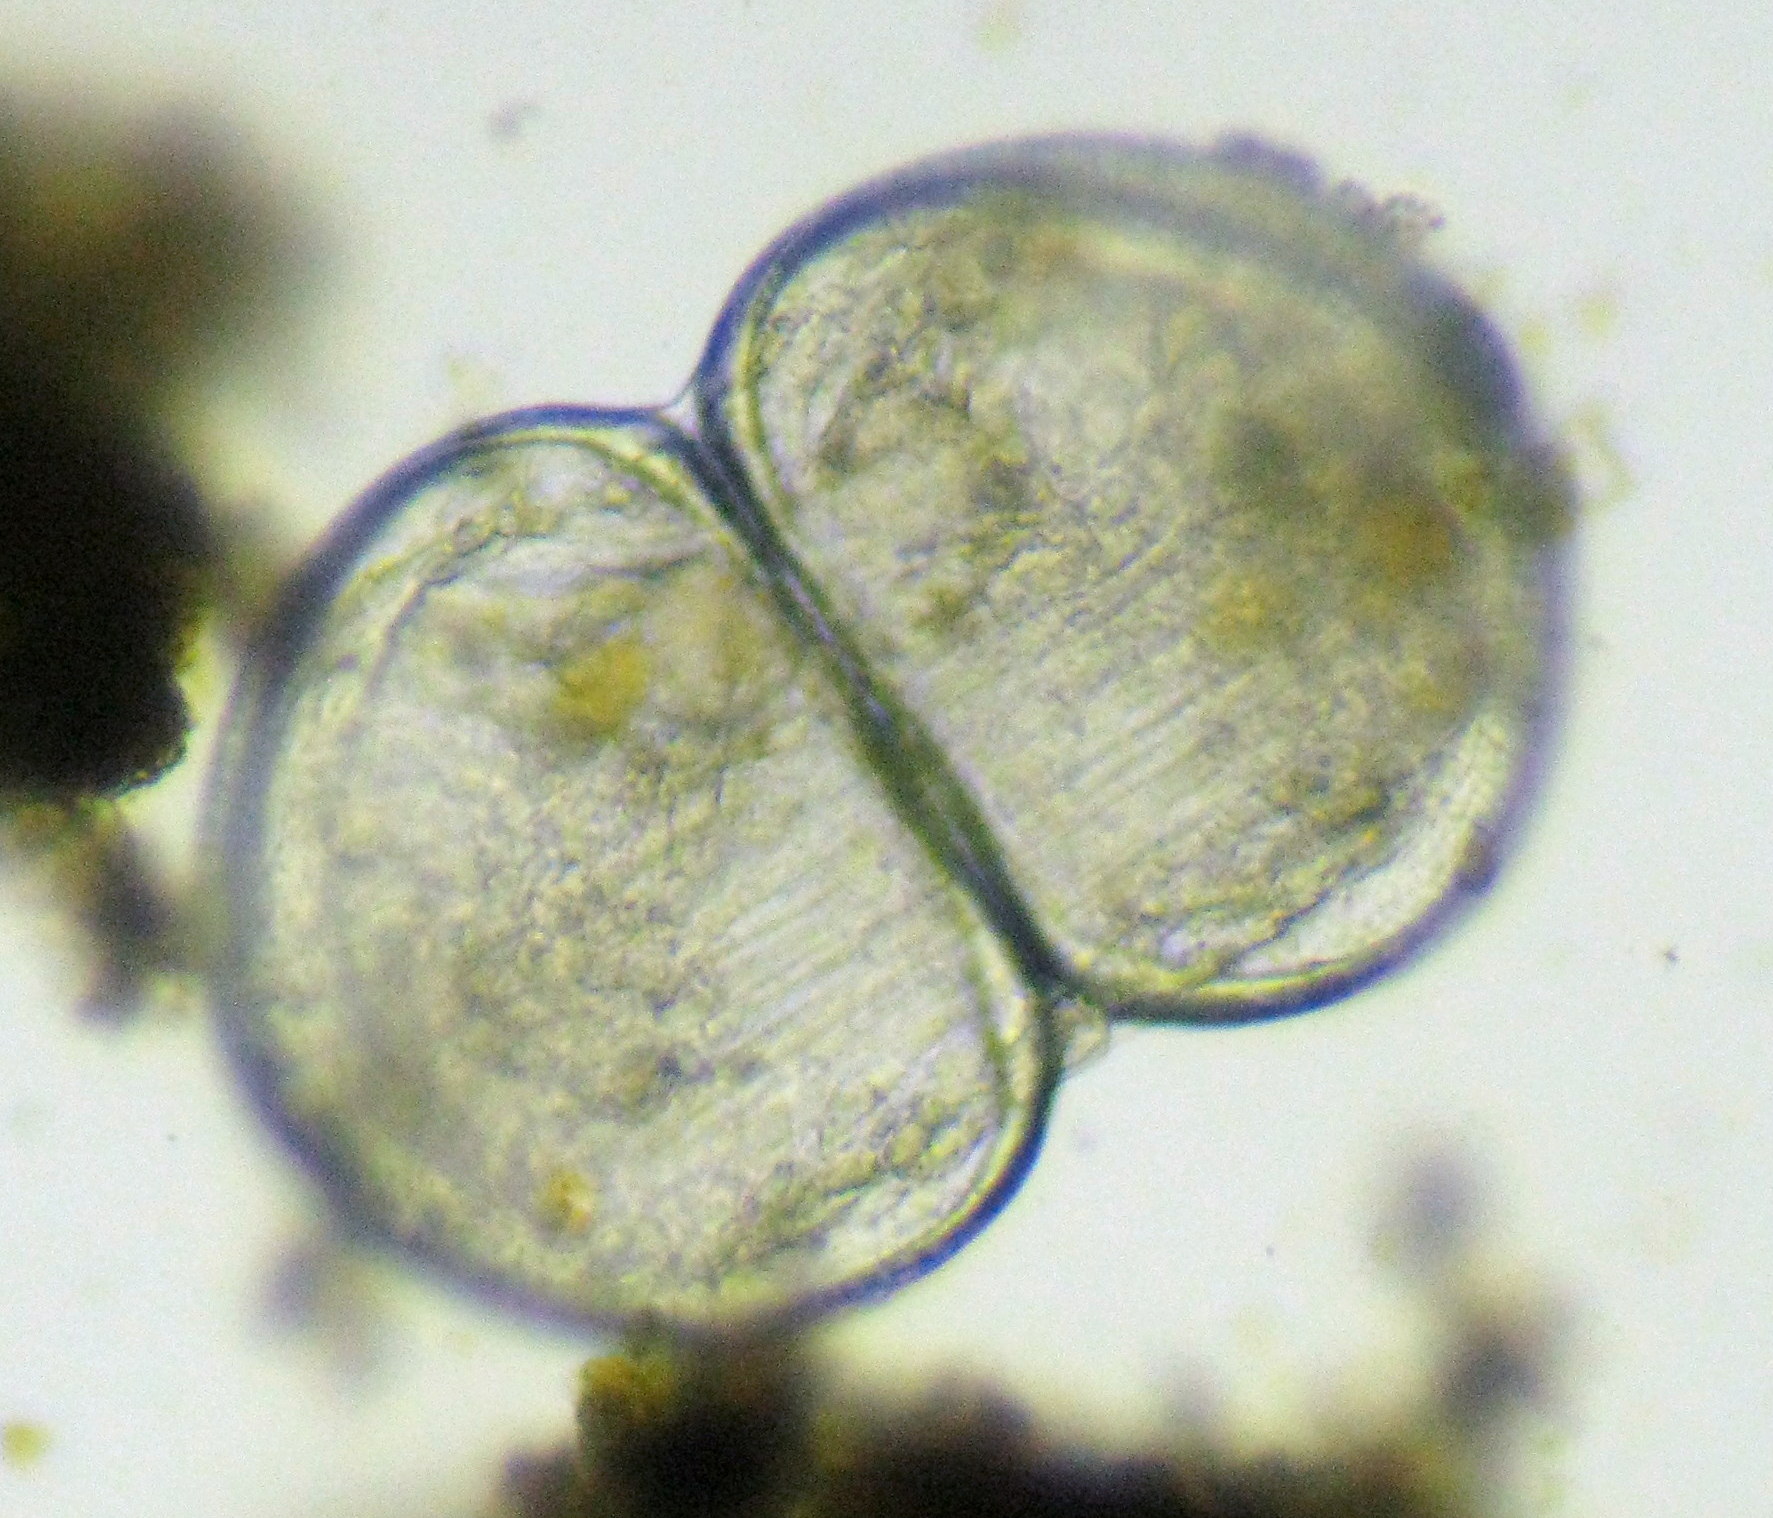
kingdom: Animalia
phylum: Mollusca
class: Bivalvia
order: Unionida
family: Unionidae
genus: Anodonta
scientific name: Anodonta
